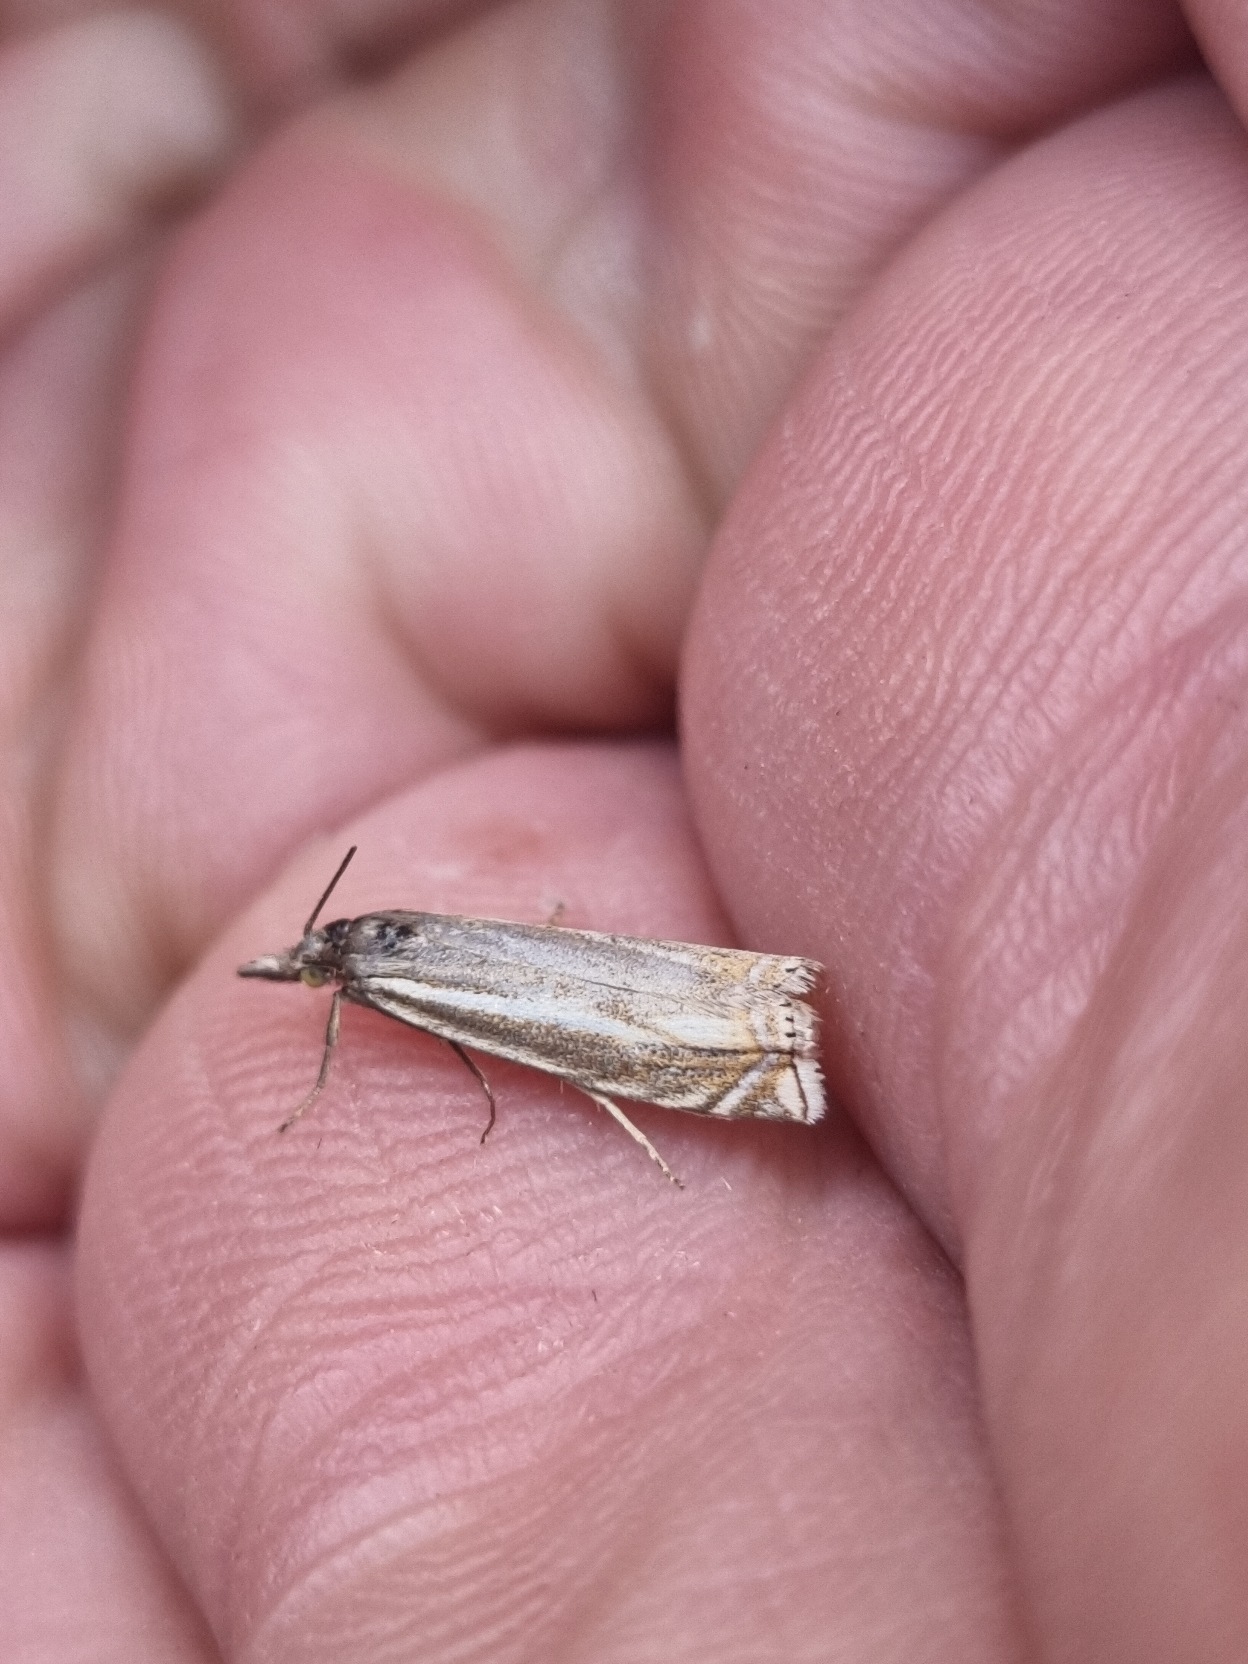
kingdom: Animalia
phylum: Arthropoda
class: Insecta
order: Lepidoptera
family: Crambidae
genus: Crambus
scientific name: Crambus nemorella
